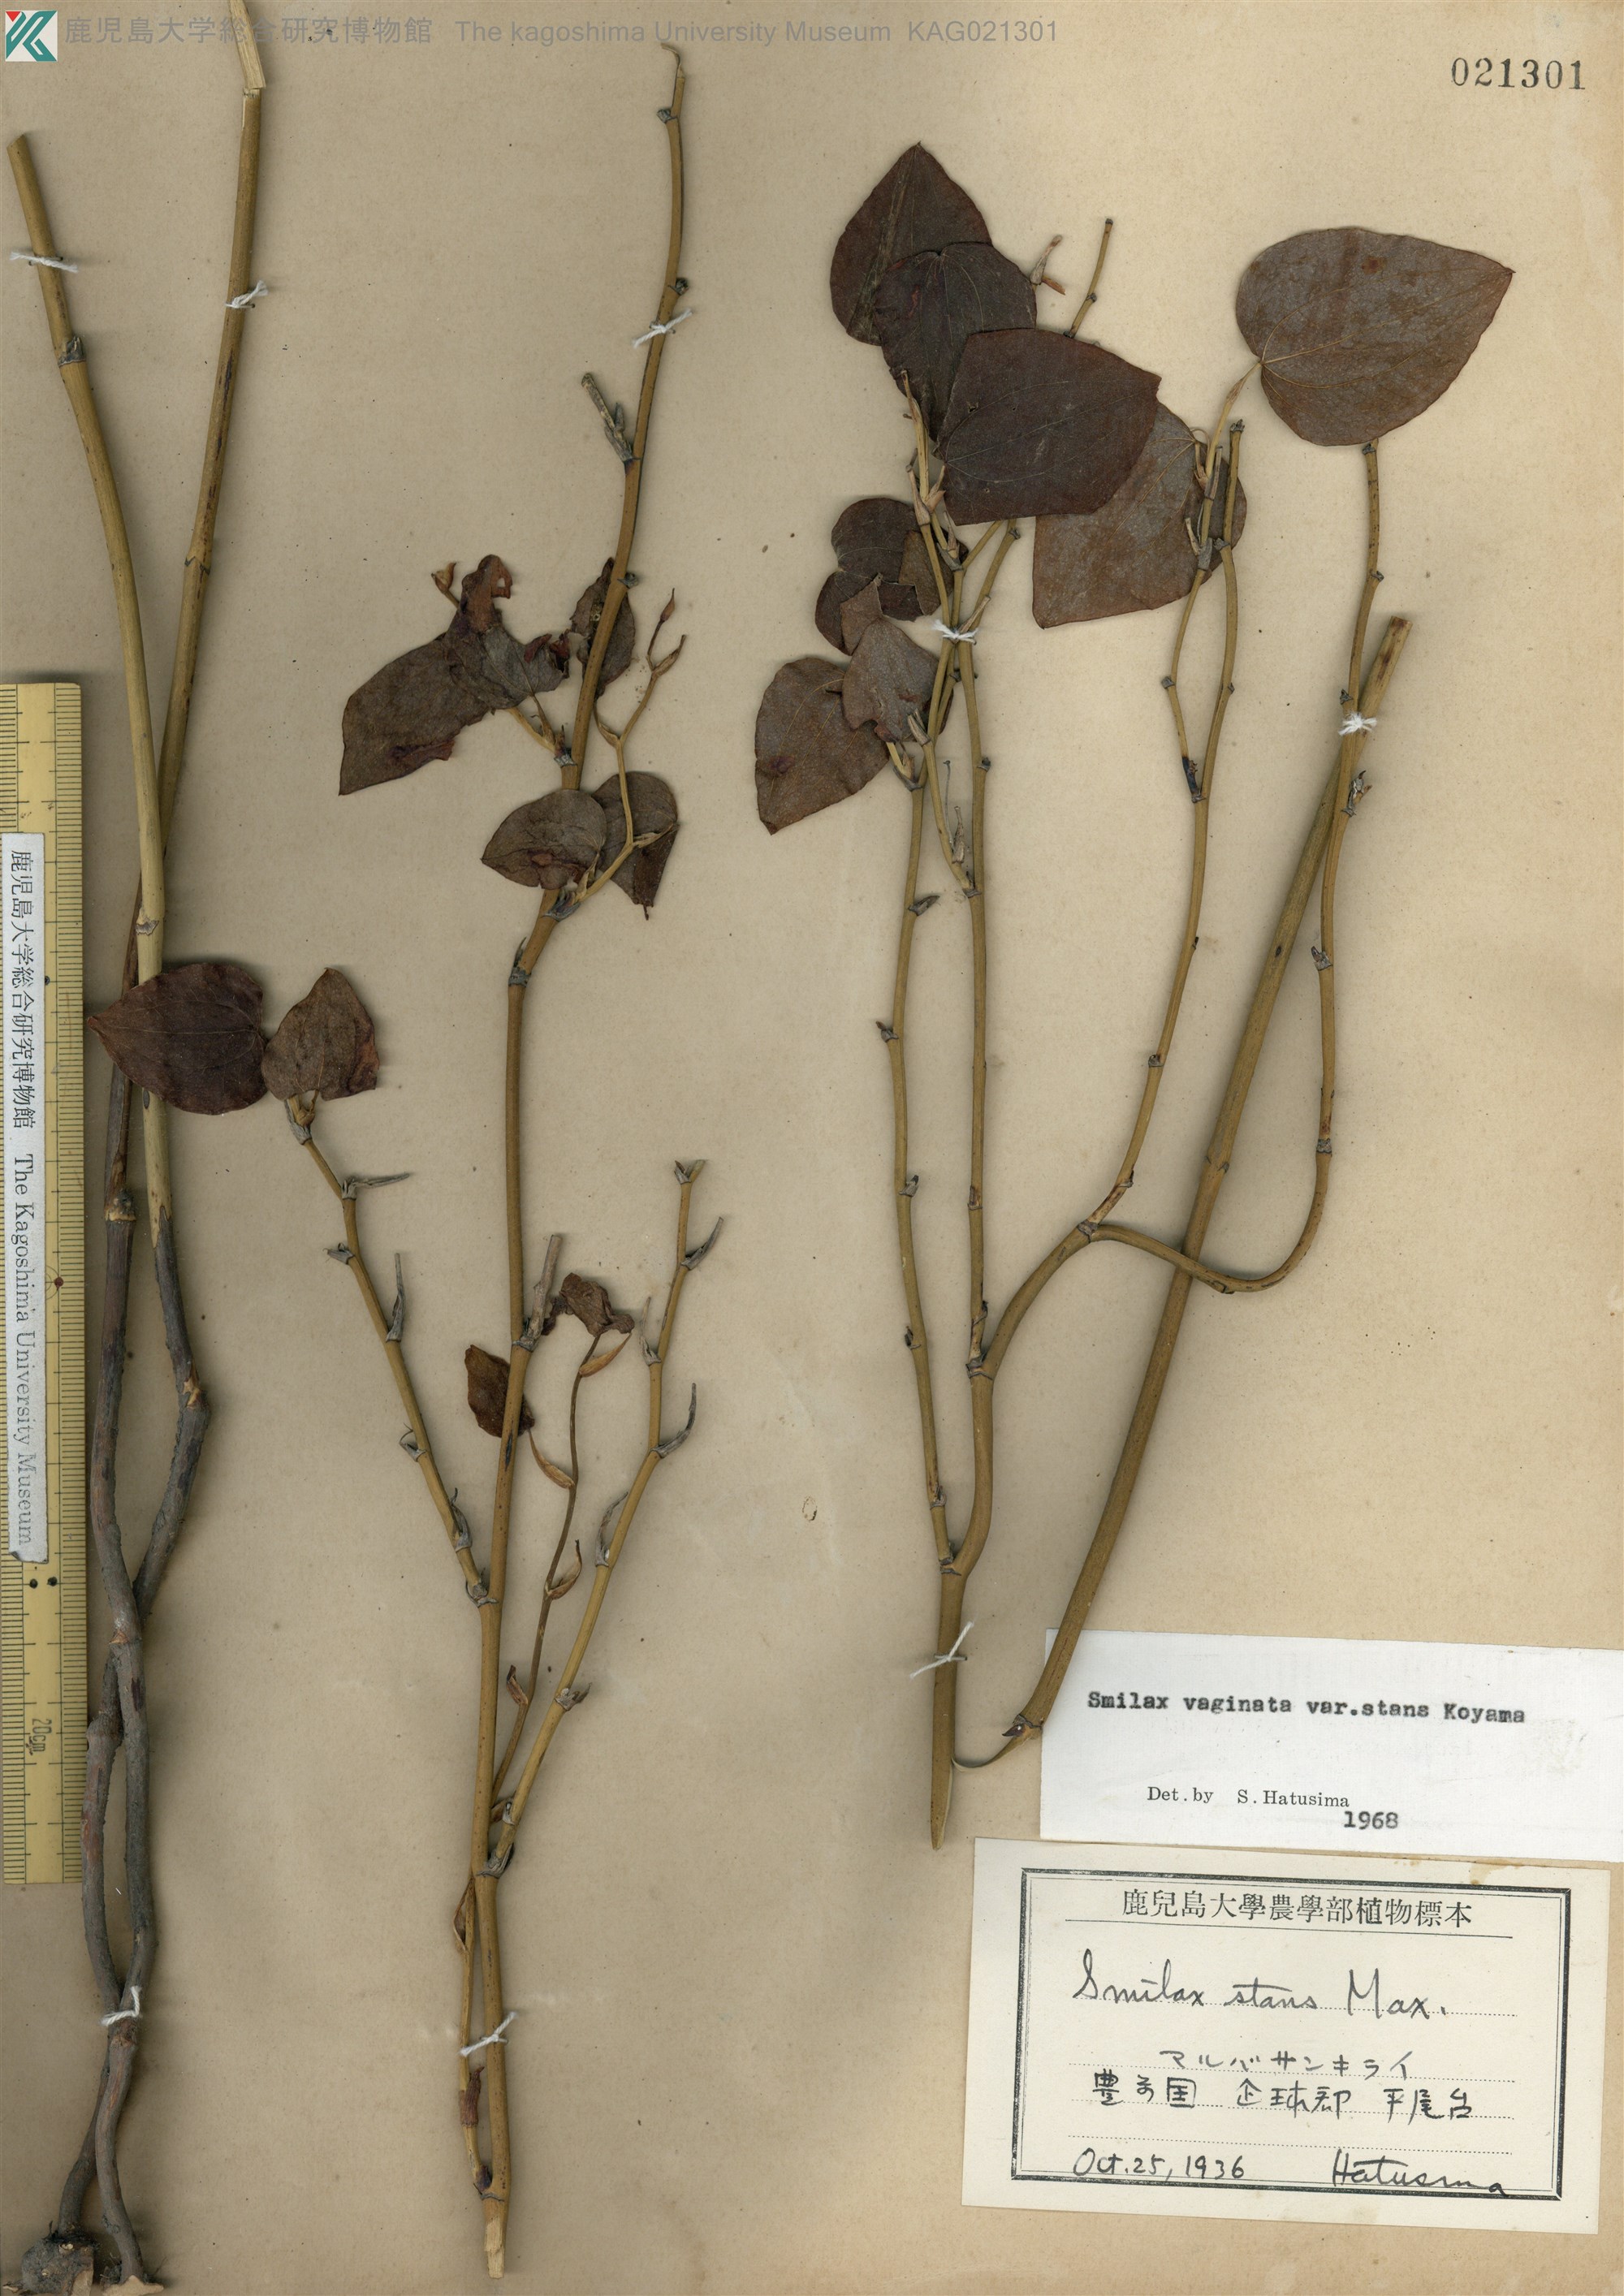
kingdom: Plantae
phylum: Tracheophyta
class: Liliopsida
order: Liliales
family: Smilacaceae
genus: Smilax
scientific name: Smilax stans
